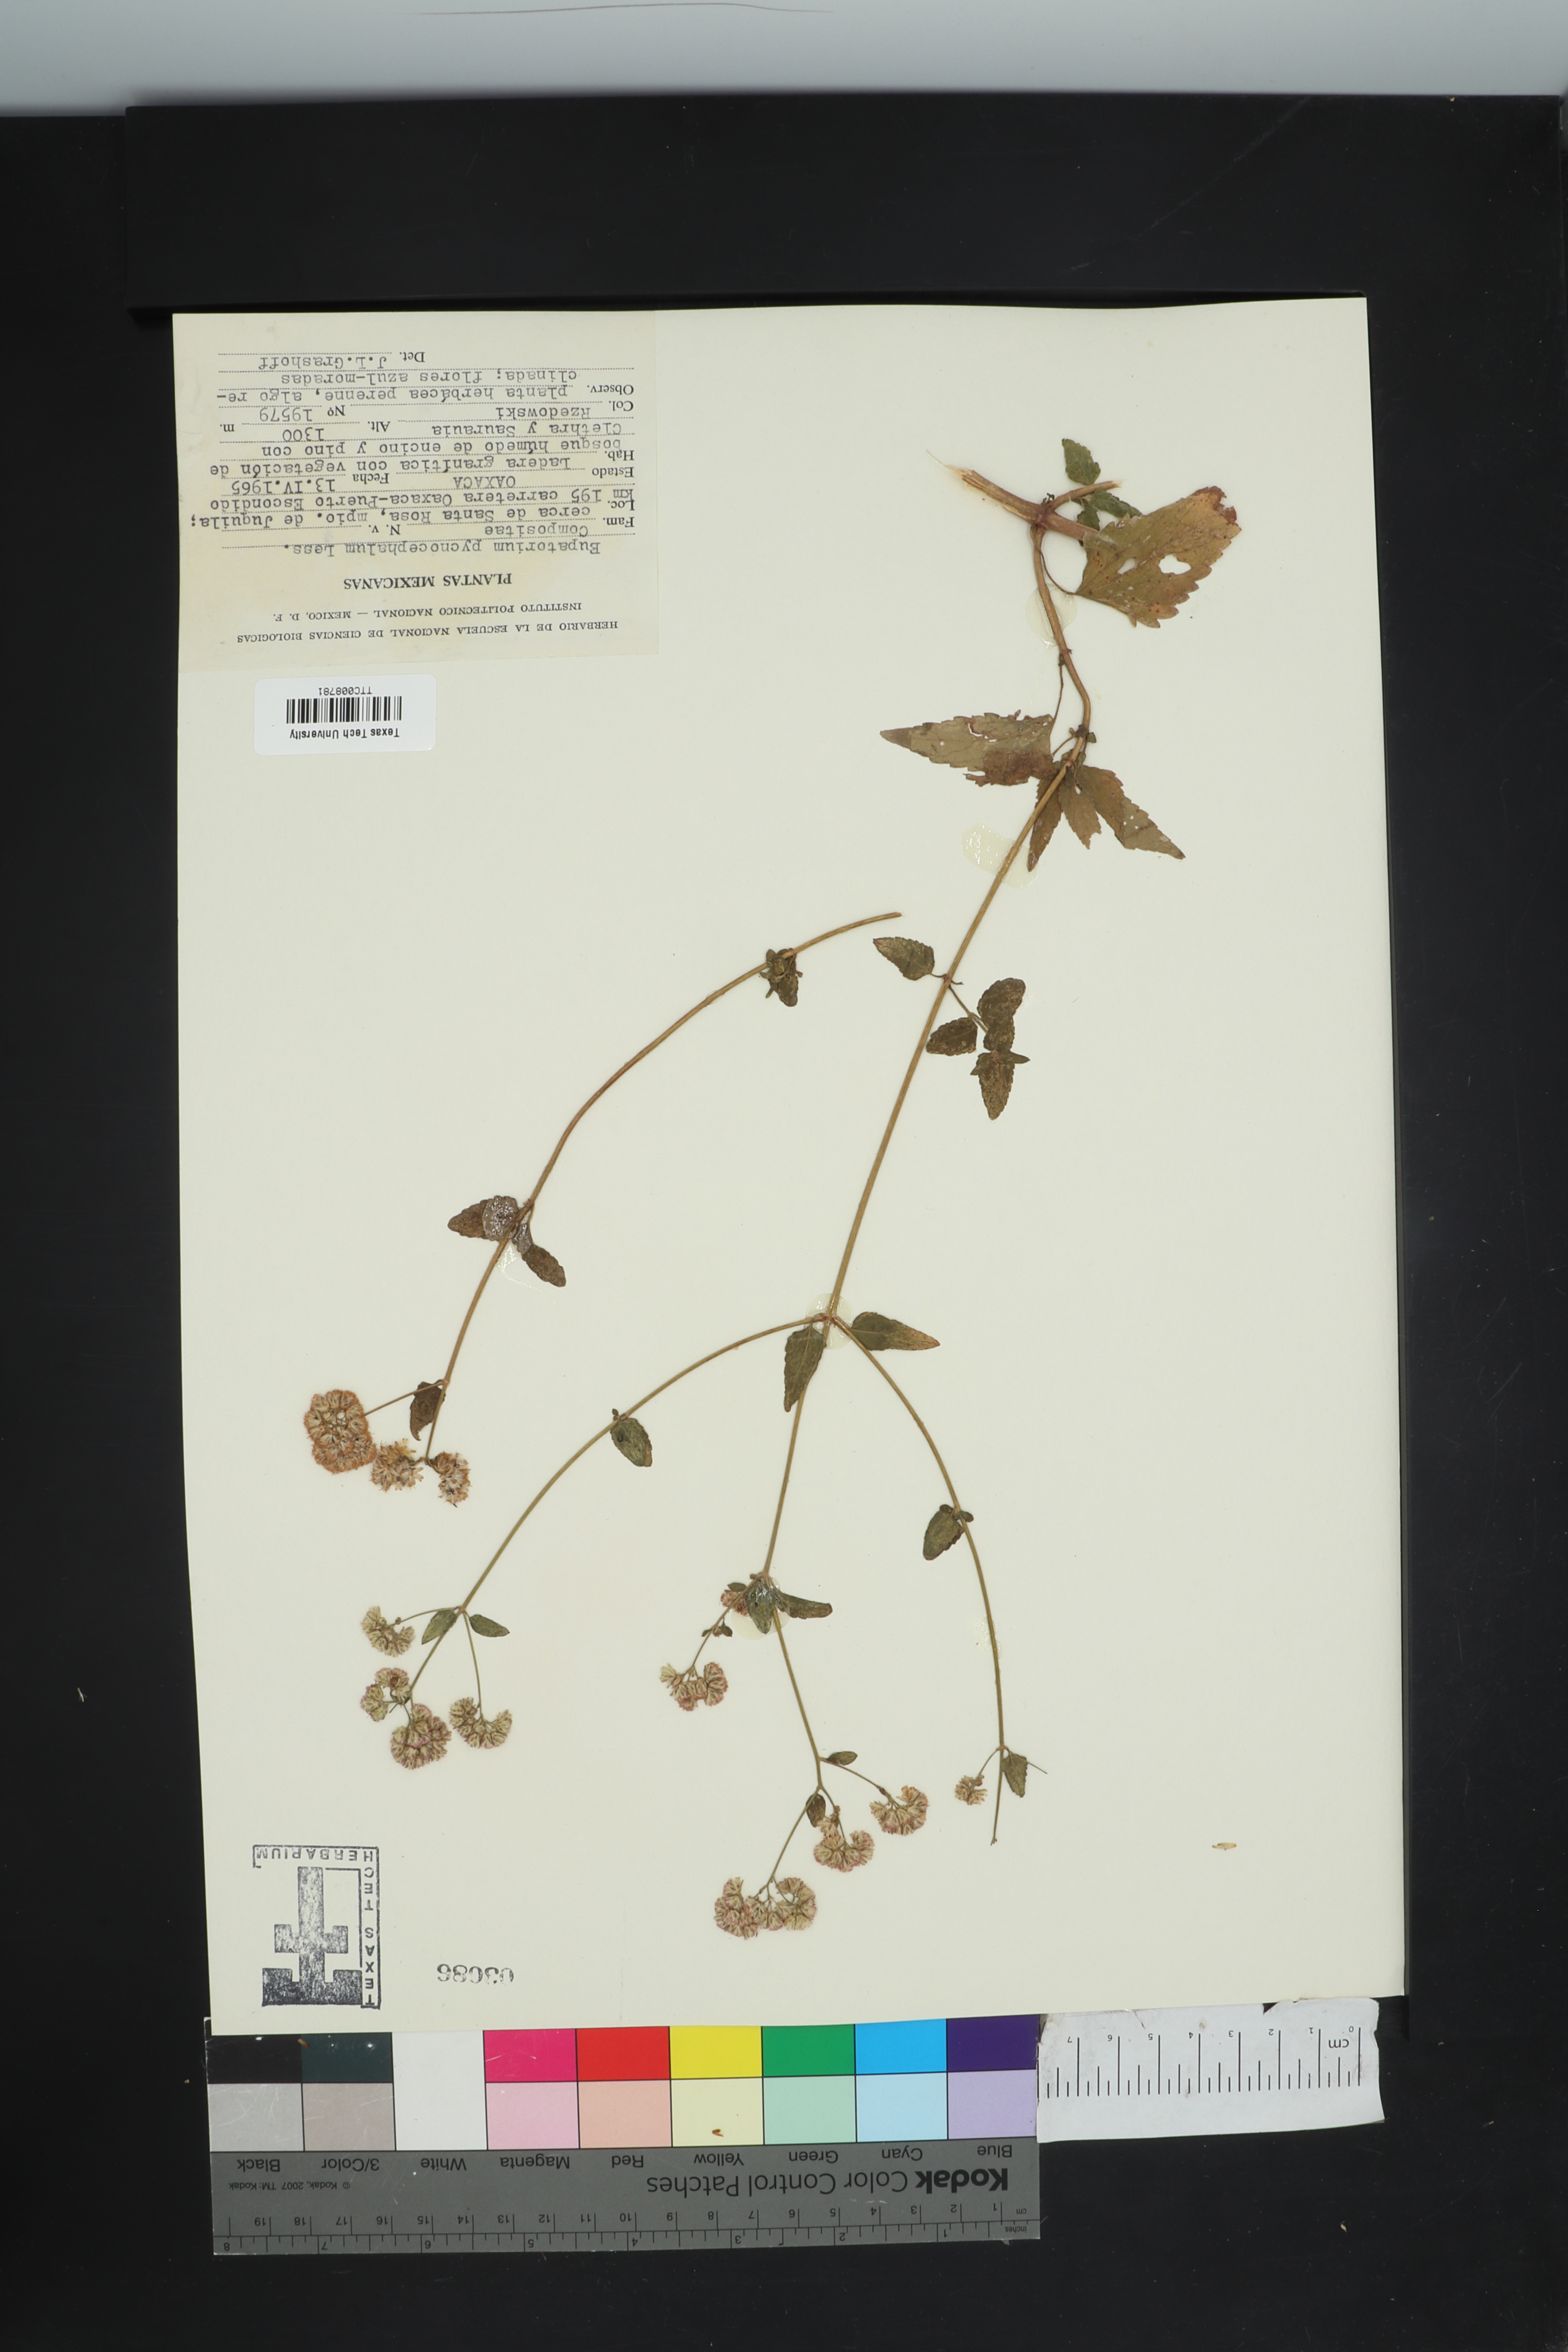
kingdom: Plantae
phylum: Tracheophyta
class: Magnoliopsida
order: Asterales
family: Asteraceae
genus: Fleischmannia
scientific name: Fleischmannia pycnocephala
